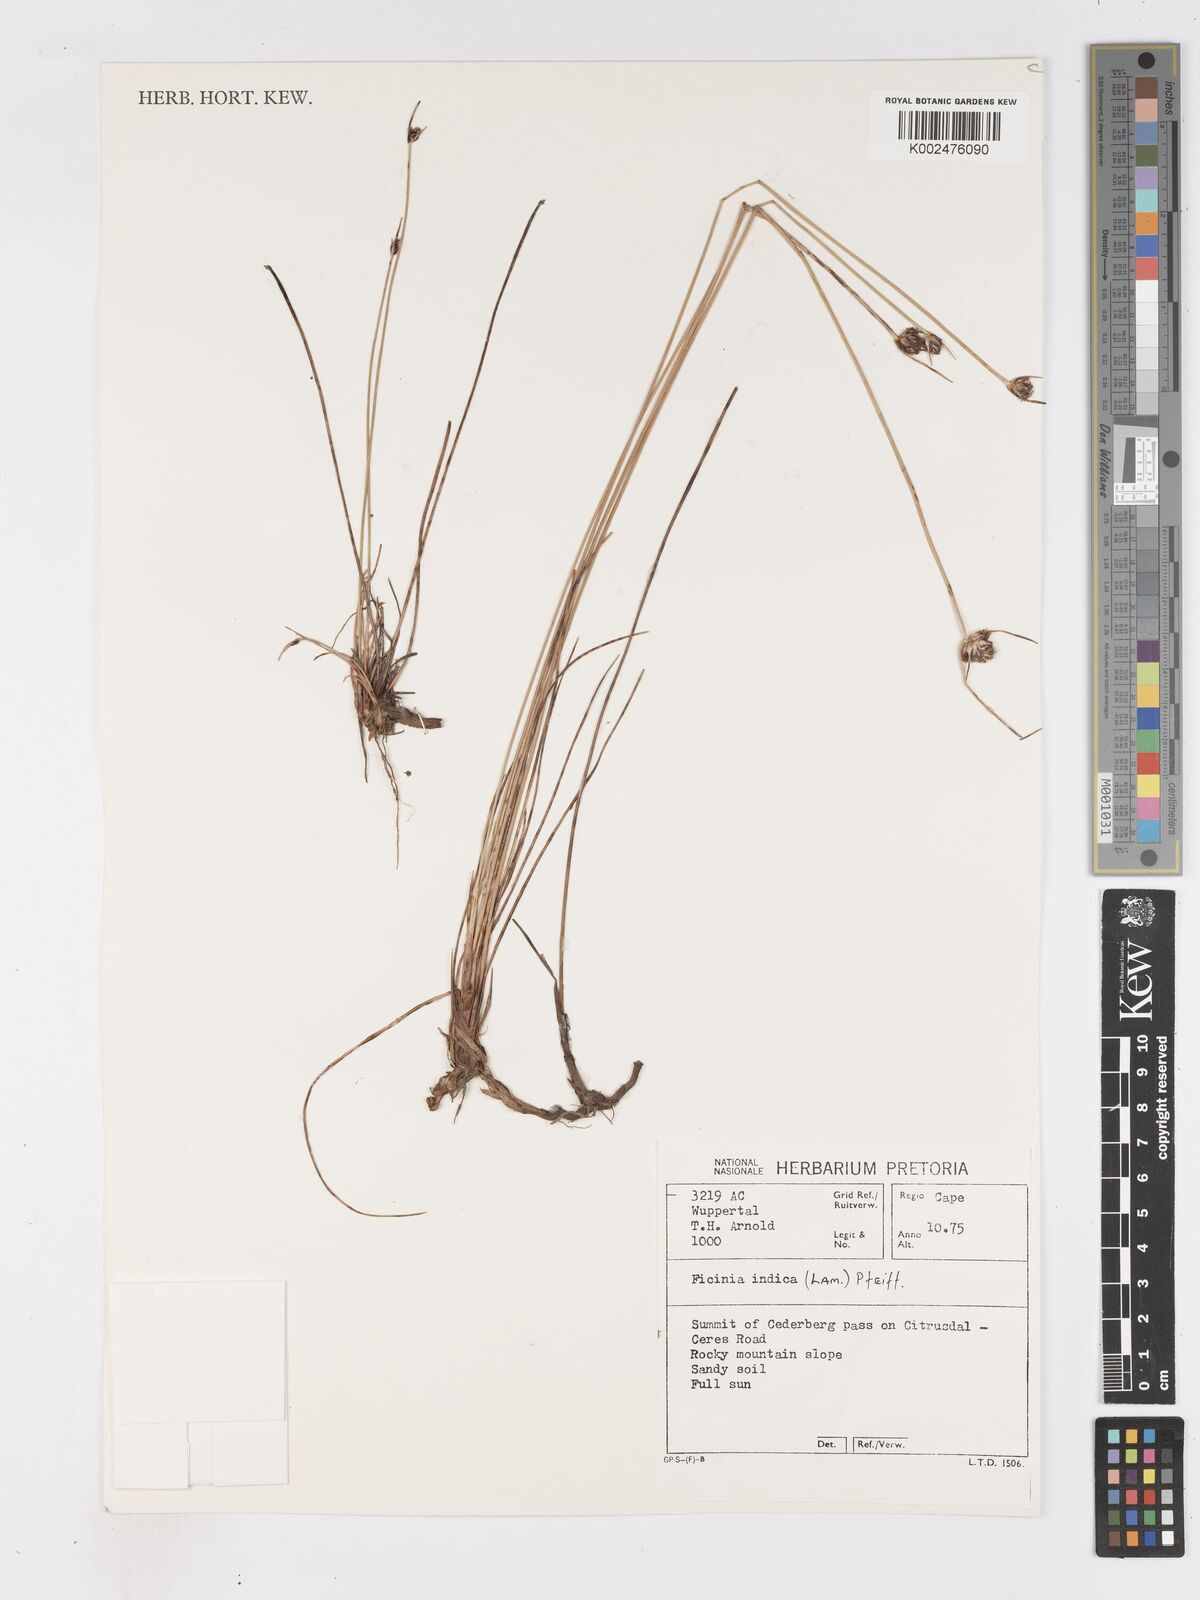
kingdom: Plantae
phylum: Tracheophyta
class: Liliopsida
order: Poales
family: Cyperaceae
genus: Ficinia
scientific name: Ficinia indica
